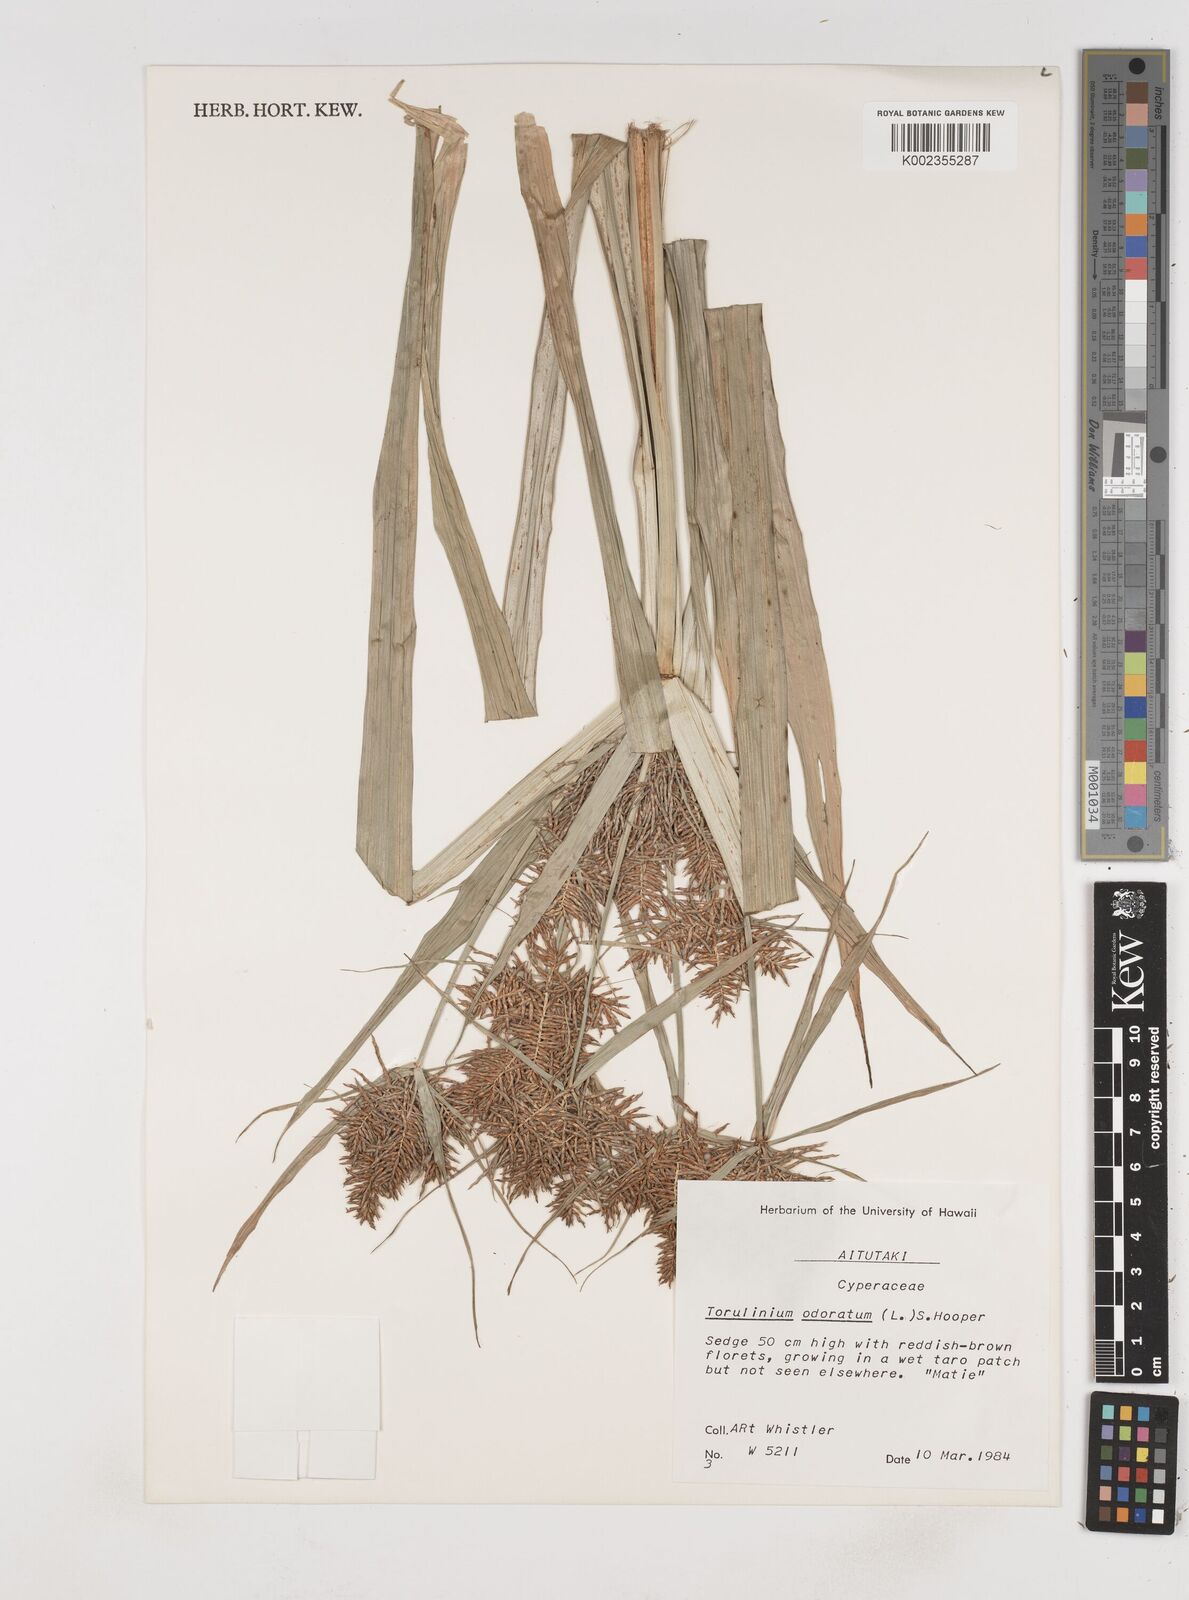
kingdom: Plantae
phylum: Tracheophyta
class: Liliopsida
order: Poales
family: Cyperaceae
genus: Cyperus
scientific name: Cyperus odoratus
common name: Fragrant flatsedge
